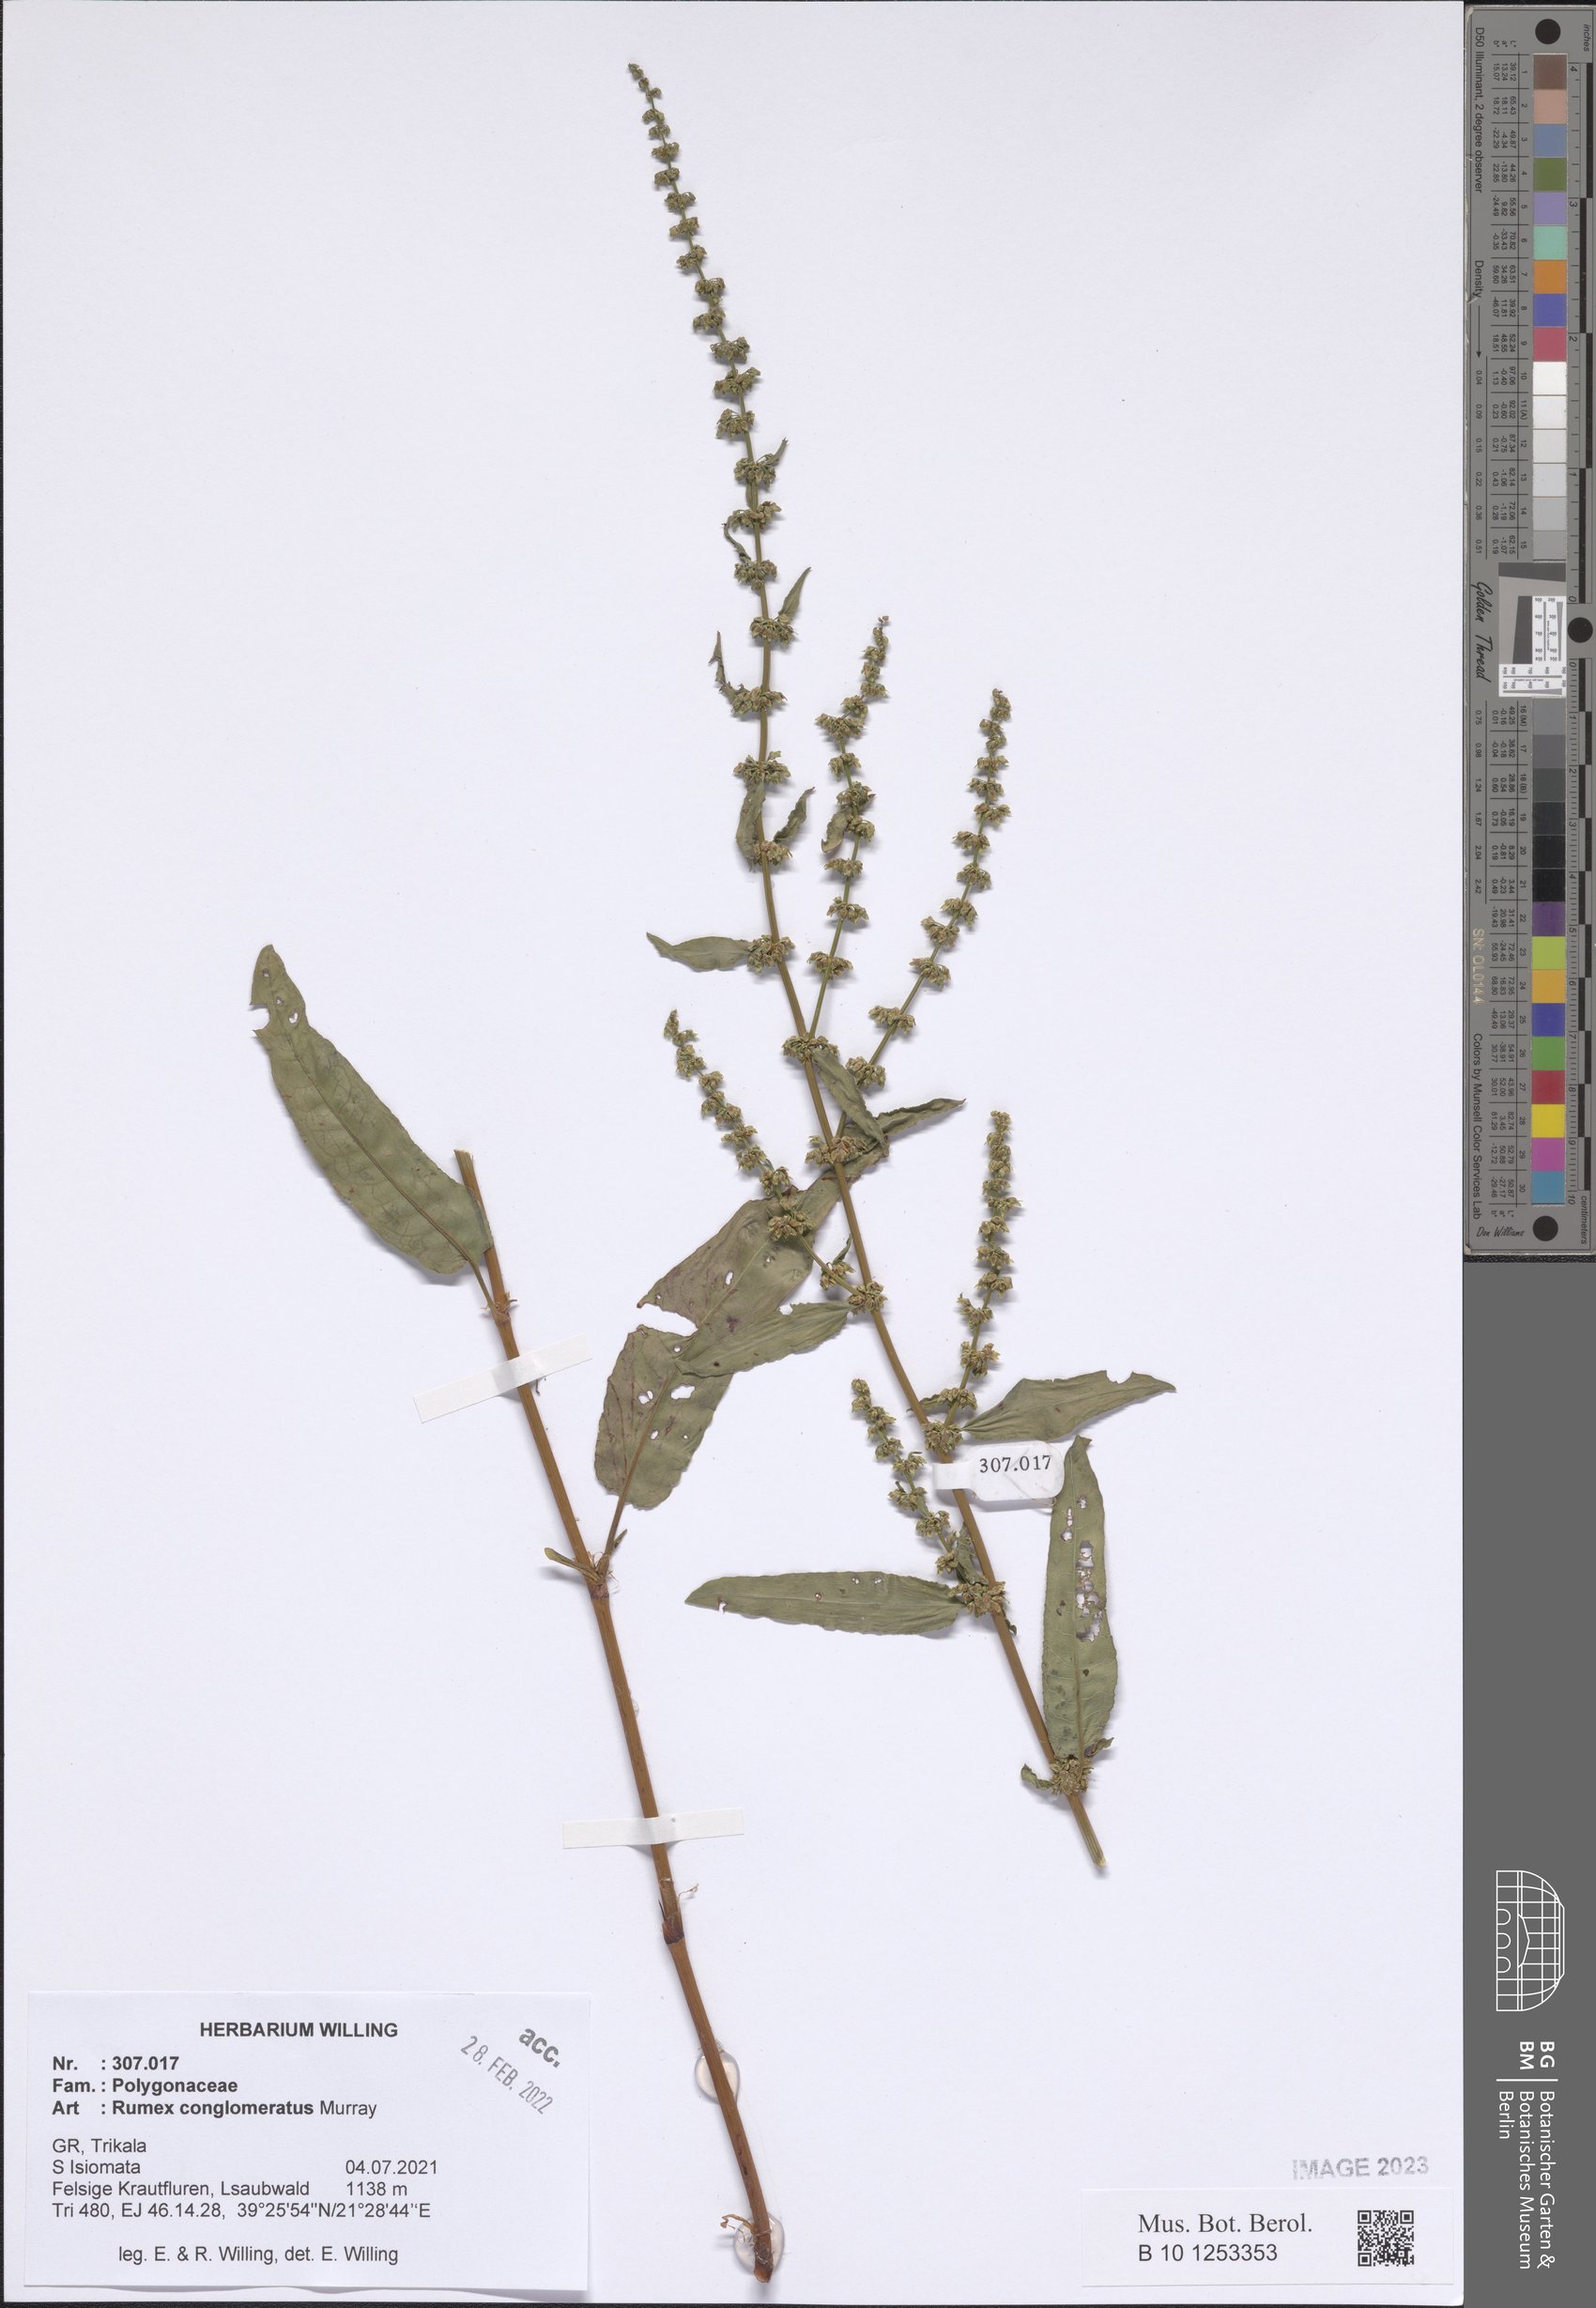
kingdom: Plantae
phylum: Tracheophyta
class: Magnoliopsida
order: Caryophyllales
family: Polygonaceae
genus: Rumex
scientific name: Rumex conglomeratus
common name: Clustered dock
